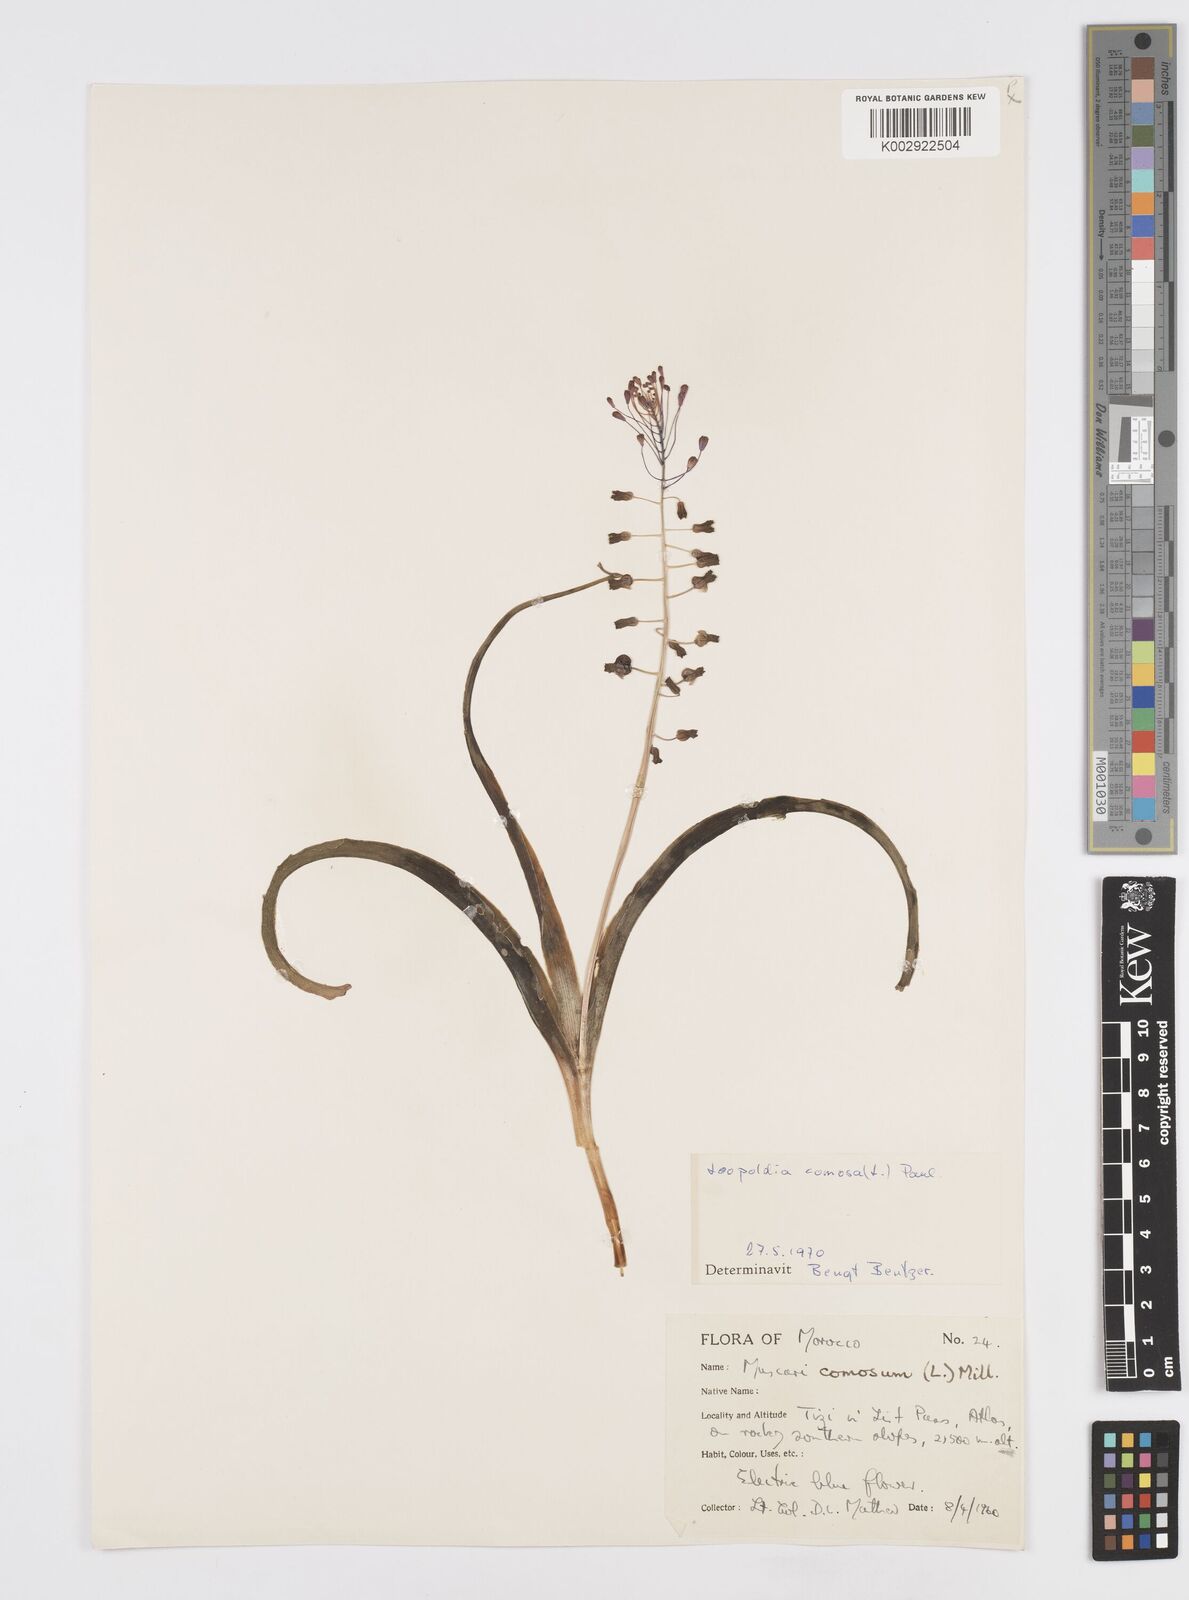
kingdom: Plantae
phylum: Tracheophyta
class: Liliopsida
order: Asparagales
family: Asparagaceae
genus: Muscari
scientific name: Muscari comosum
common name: Tassel hyacinth
